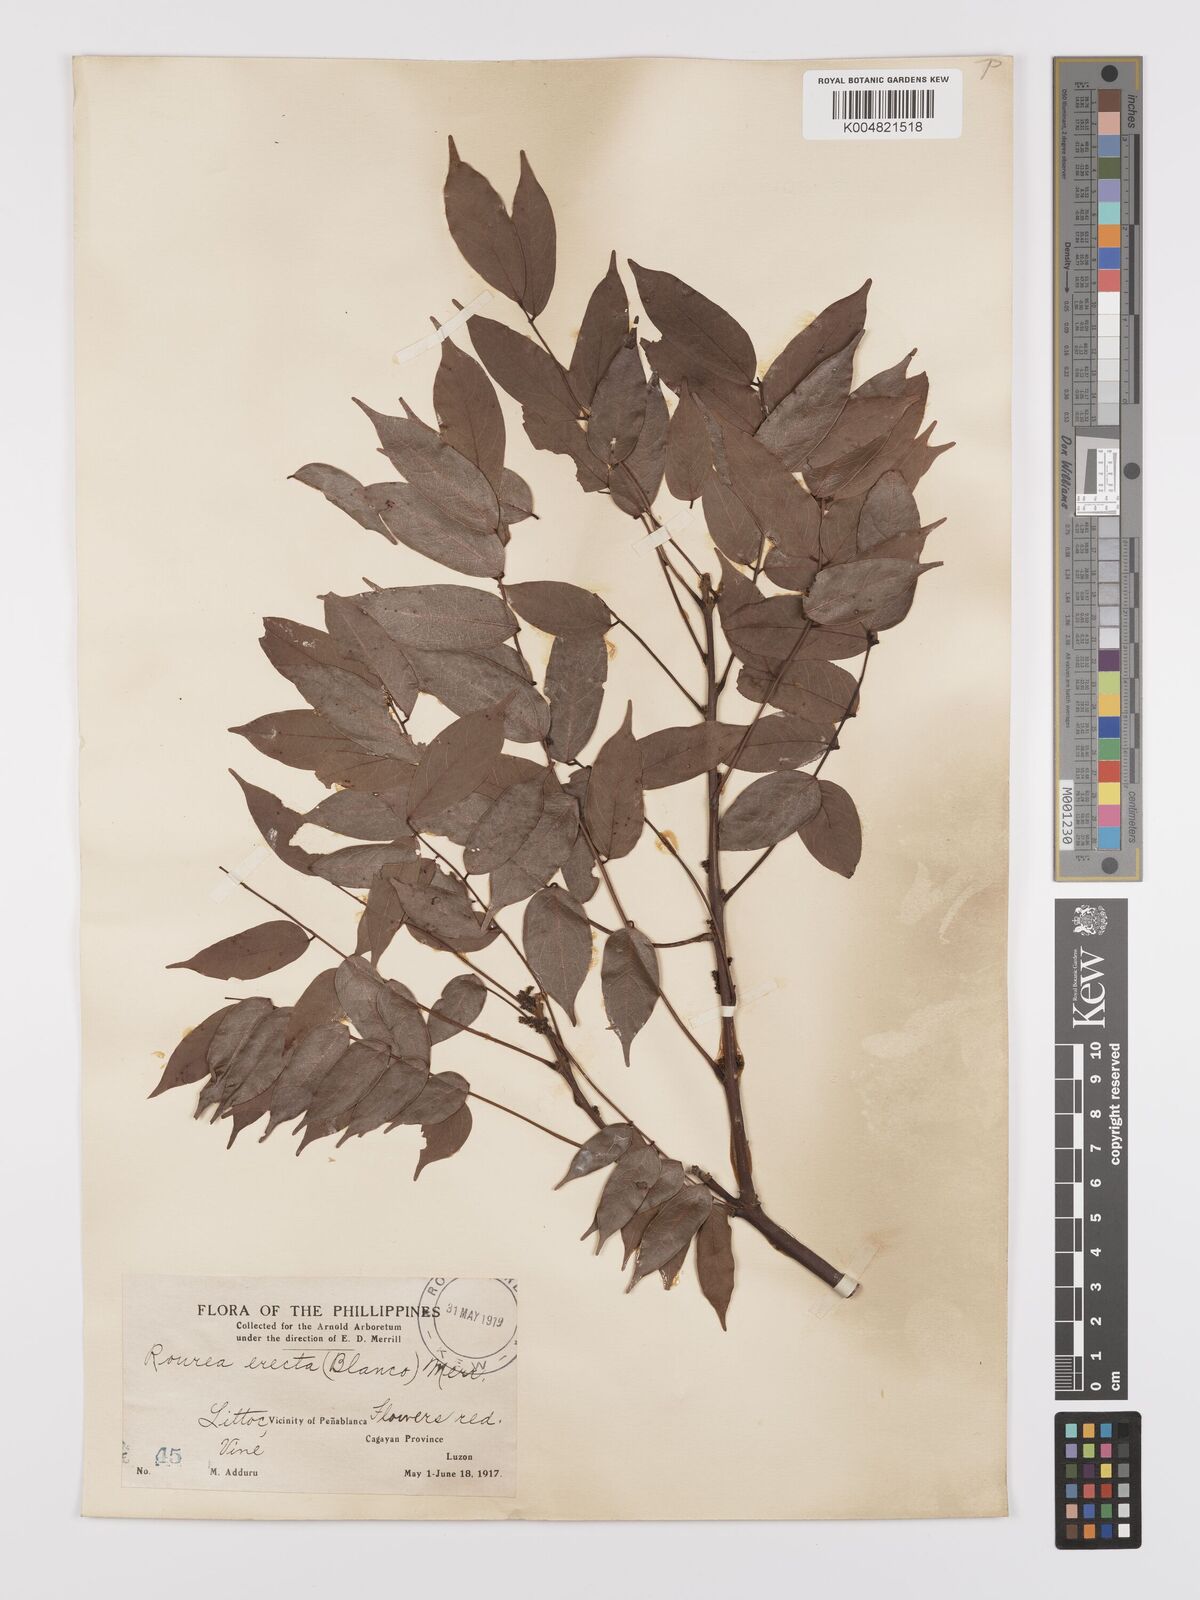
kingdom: Plantae
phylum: Tracheophyta
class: Magnoliopsida
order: Oxalidales
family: Connaraceae
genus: Rourea
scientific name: Rourea minor
